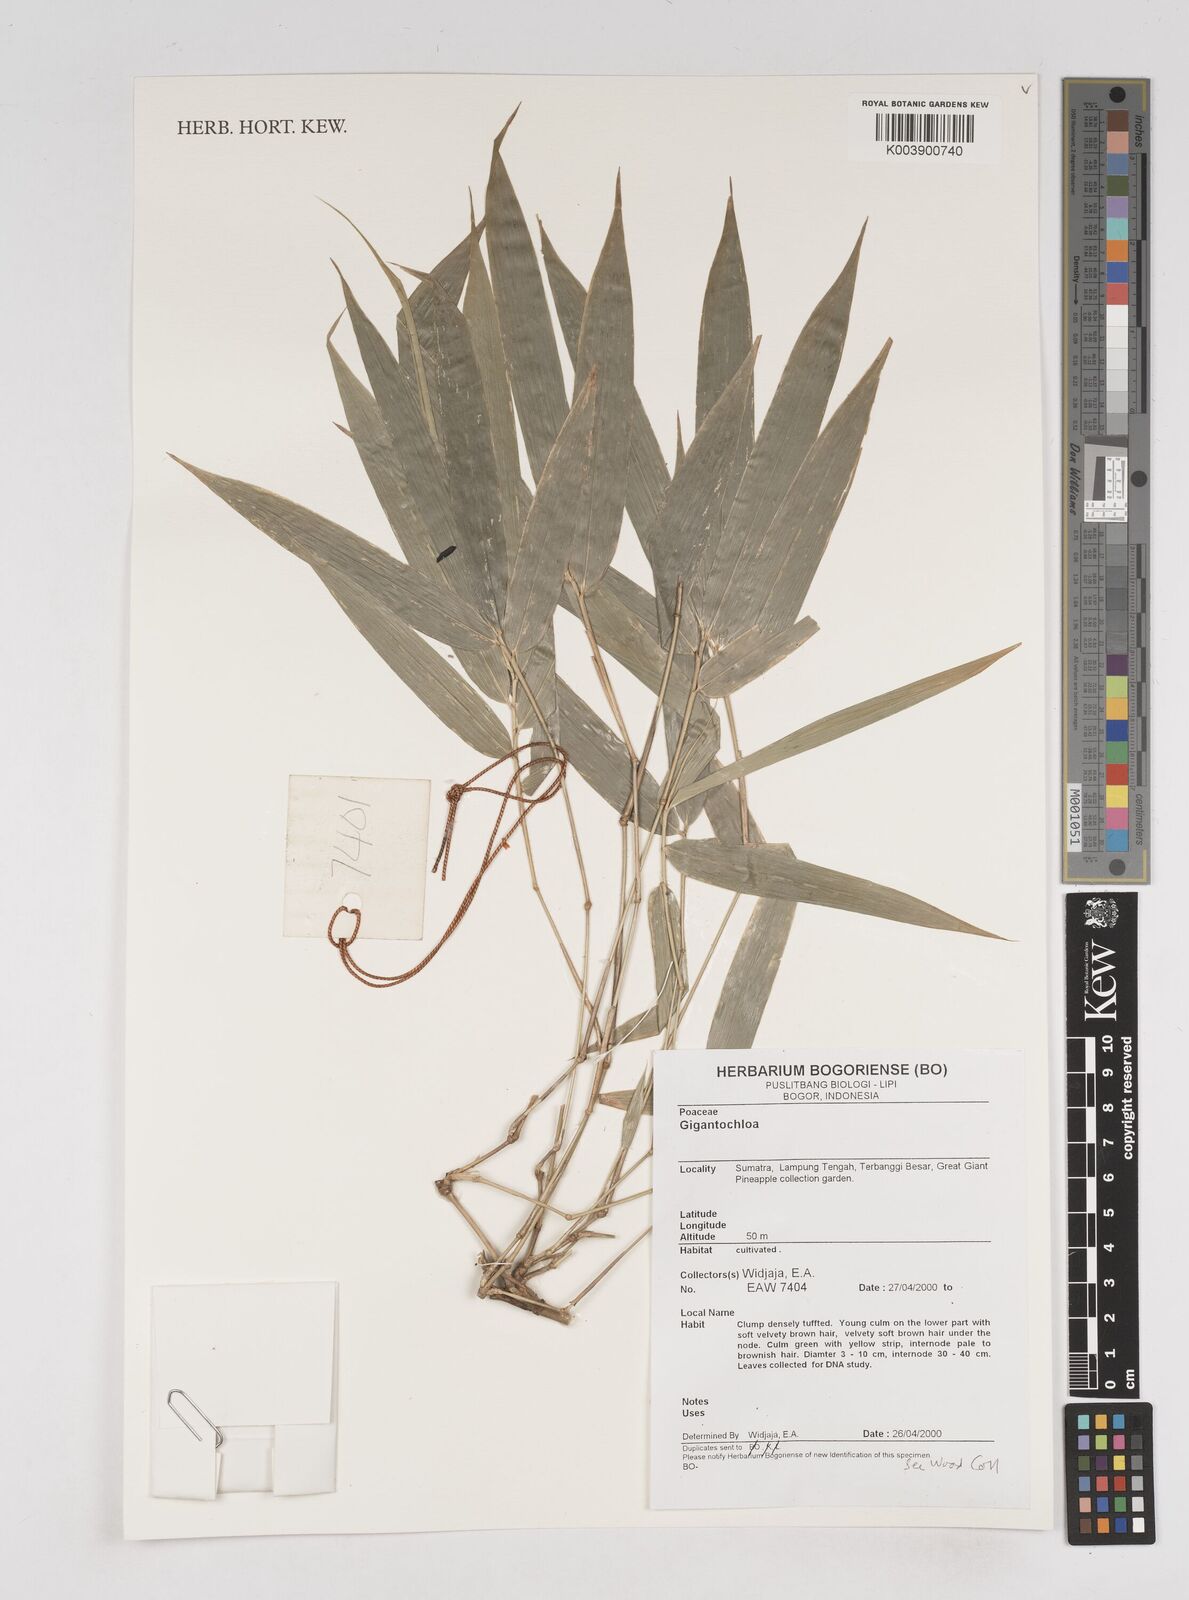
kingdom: Plantae
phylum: Tracheophyta
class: Liliopsida
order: Poales
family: Poaceae
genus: Gigantochloa
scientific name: Gigantochloa
